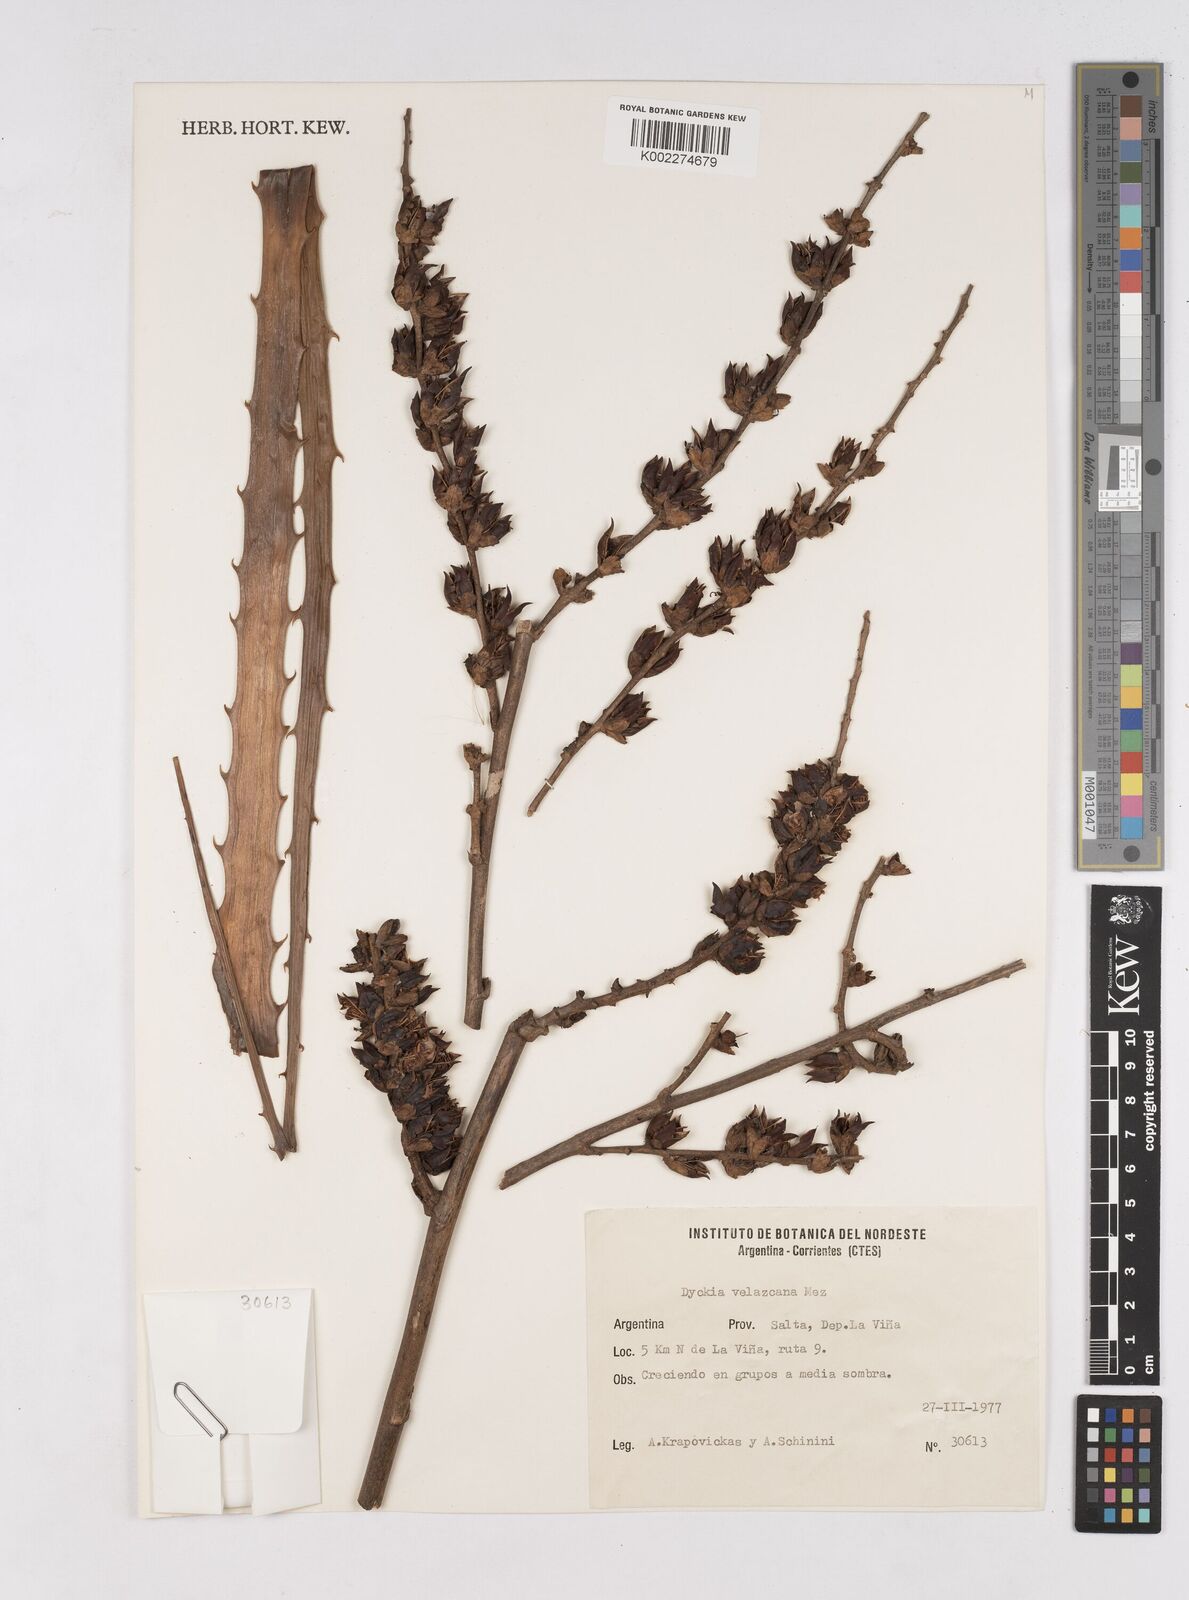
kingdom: Plantae
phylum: Tracheophyta
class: Liliopsida
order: Poales
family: Bromeliaceae
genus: Dyckia
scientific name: Dyckia velascana
